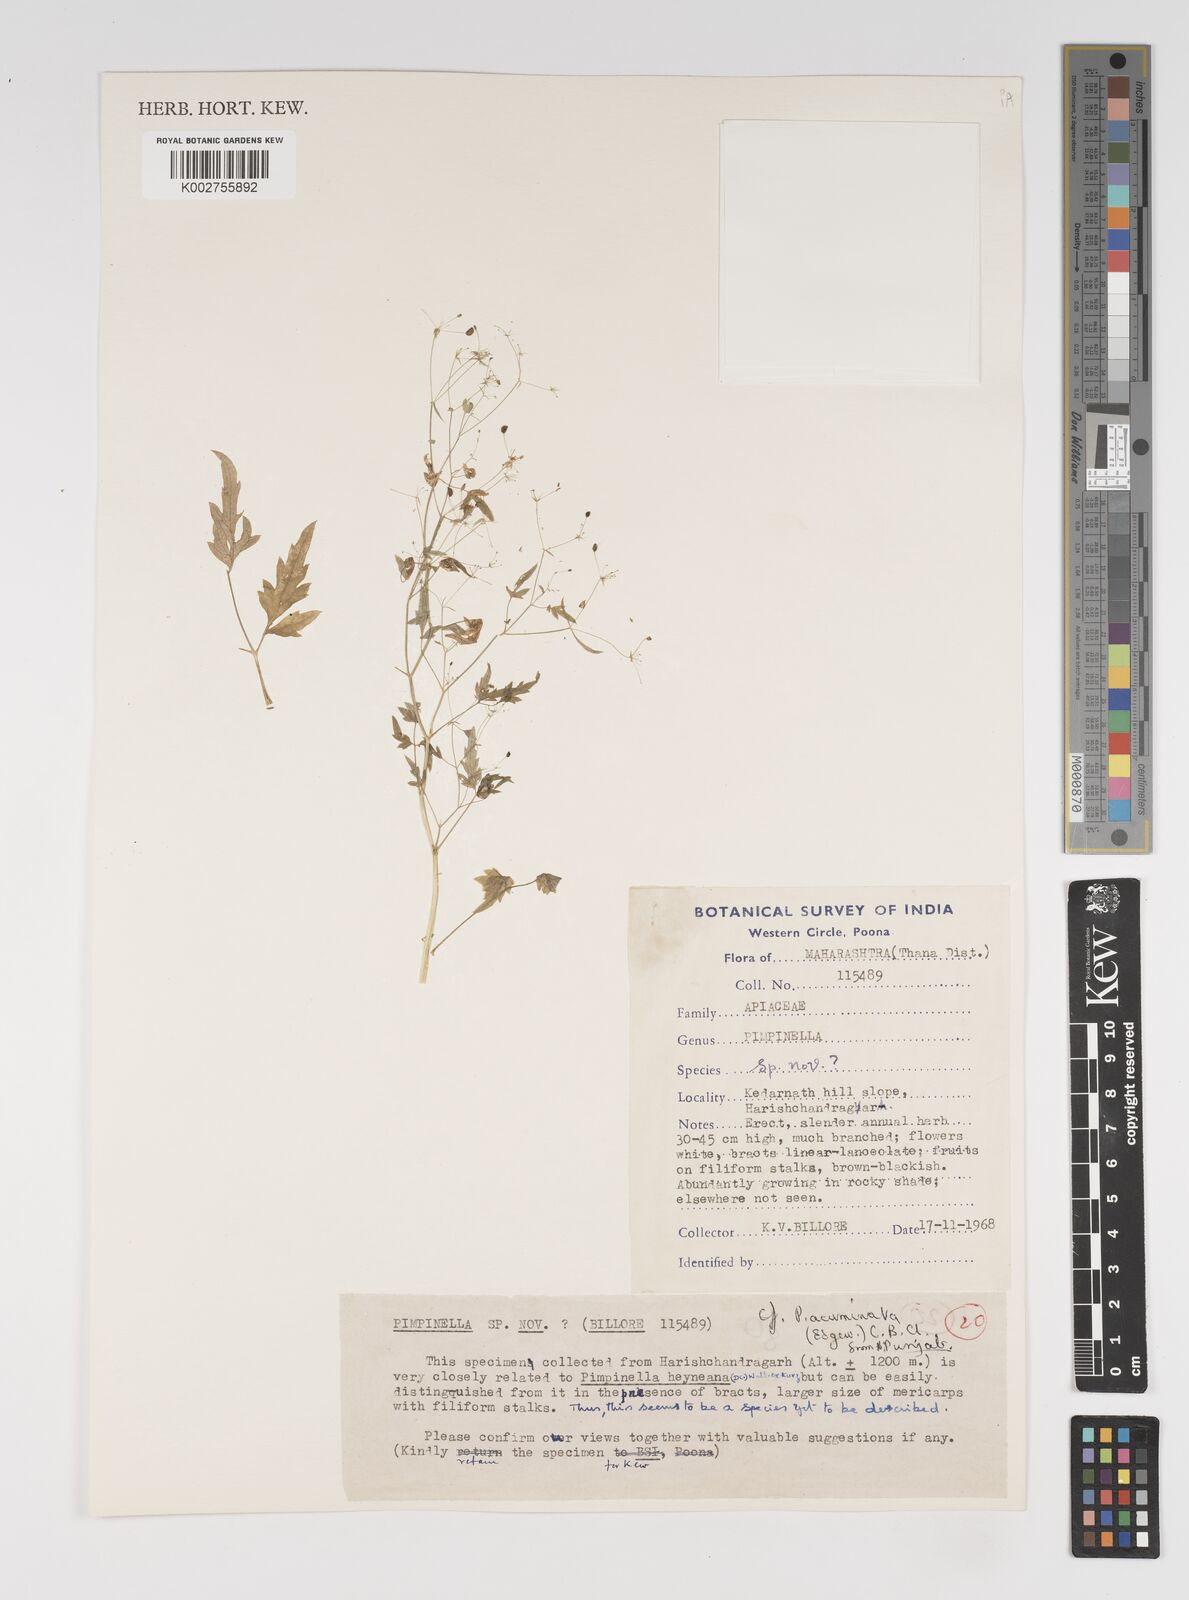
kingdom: Plantae
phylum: Tracheophyta
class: Magnoliopsida
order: Apiales
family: Apiaceae
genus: Pimpinella
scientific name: Pimpinella acuminata
